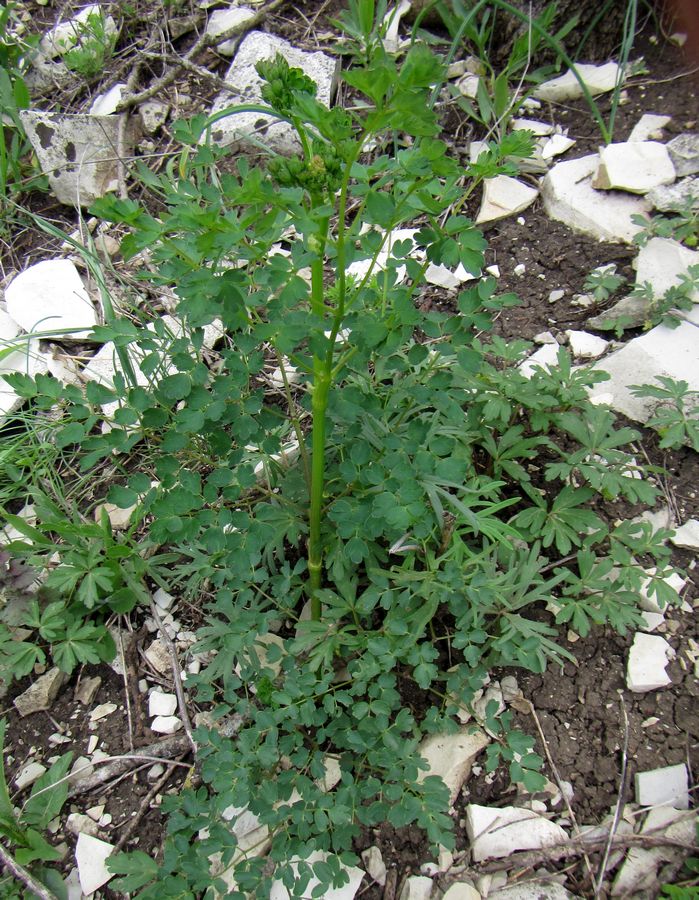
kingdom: Plantae
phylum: Tracheophyta
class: Magnoliopsida
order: Ranunculales
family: Ranunculaceae
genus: Thalictrum
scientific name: Thalictrum
